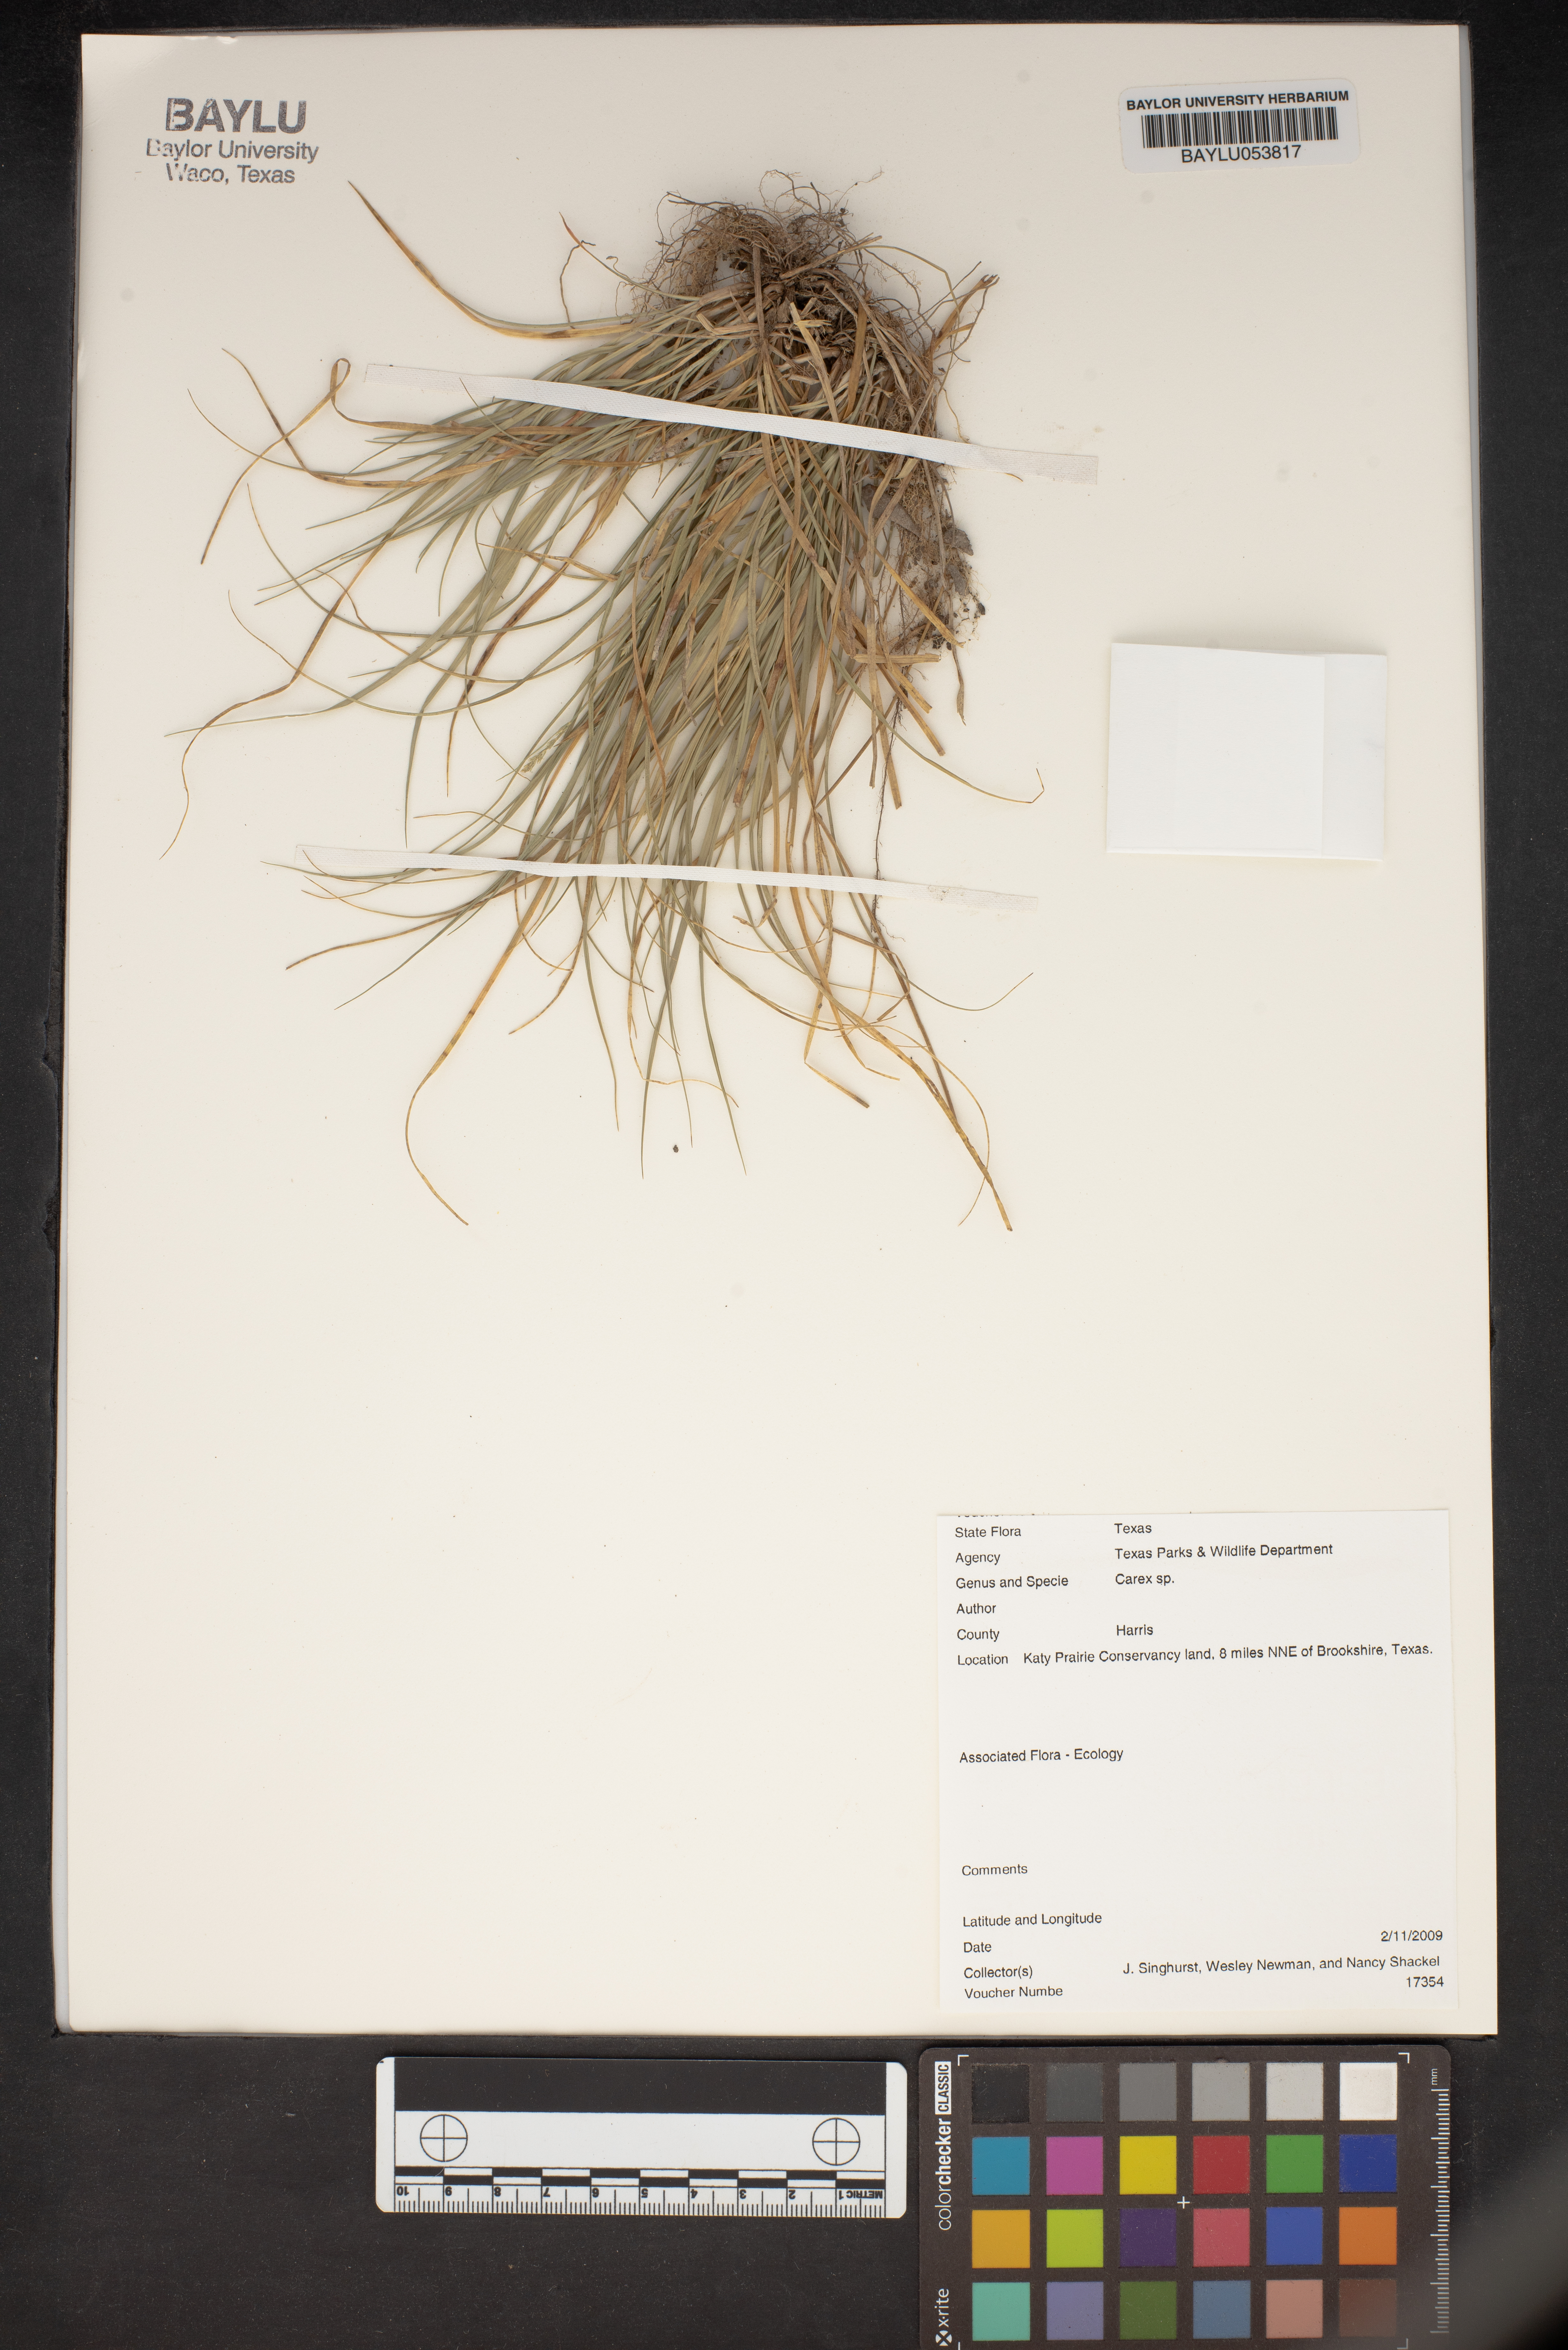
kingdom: Plantae
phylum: Tracheophyta
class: Liliopsida
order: Poales
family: Cyperaceae
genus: Carex
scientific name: Carex
